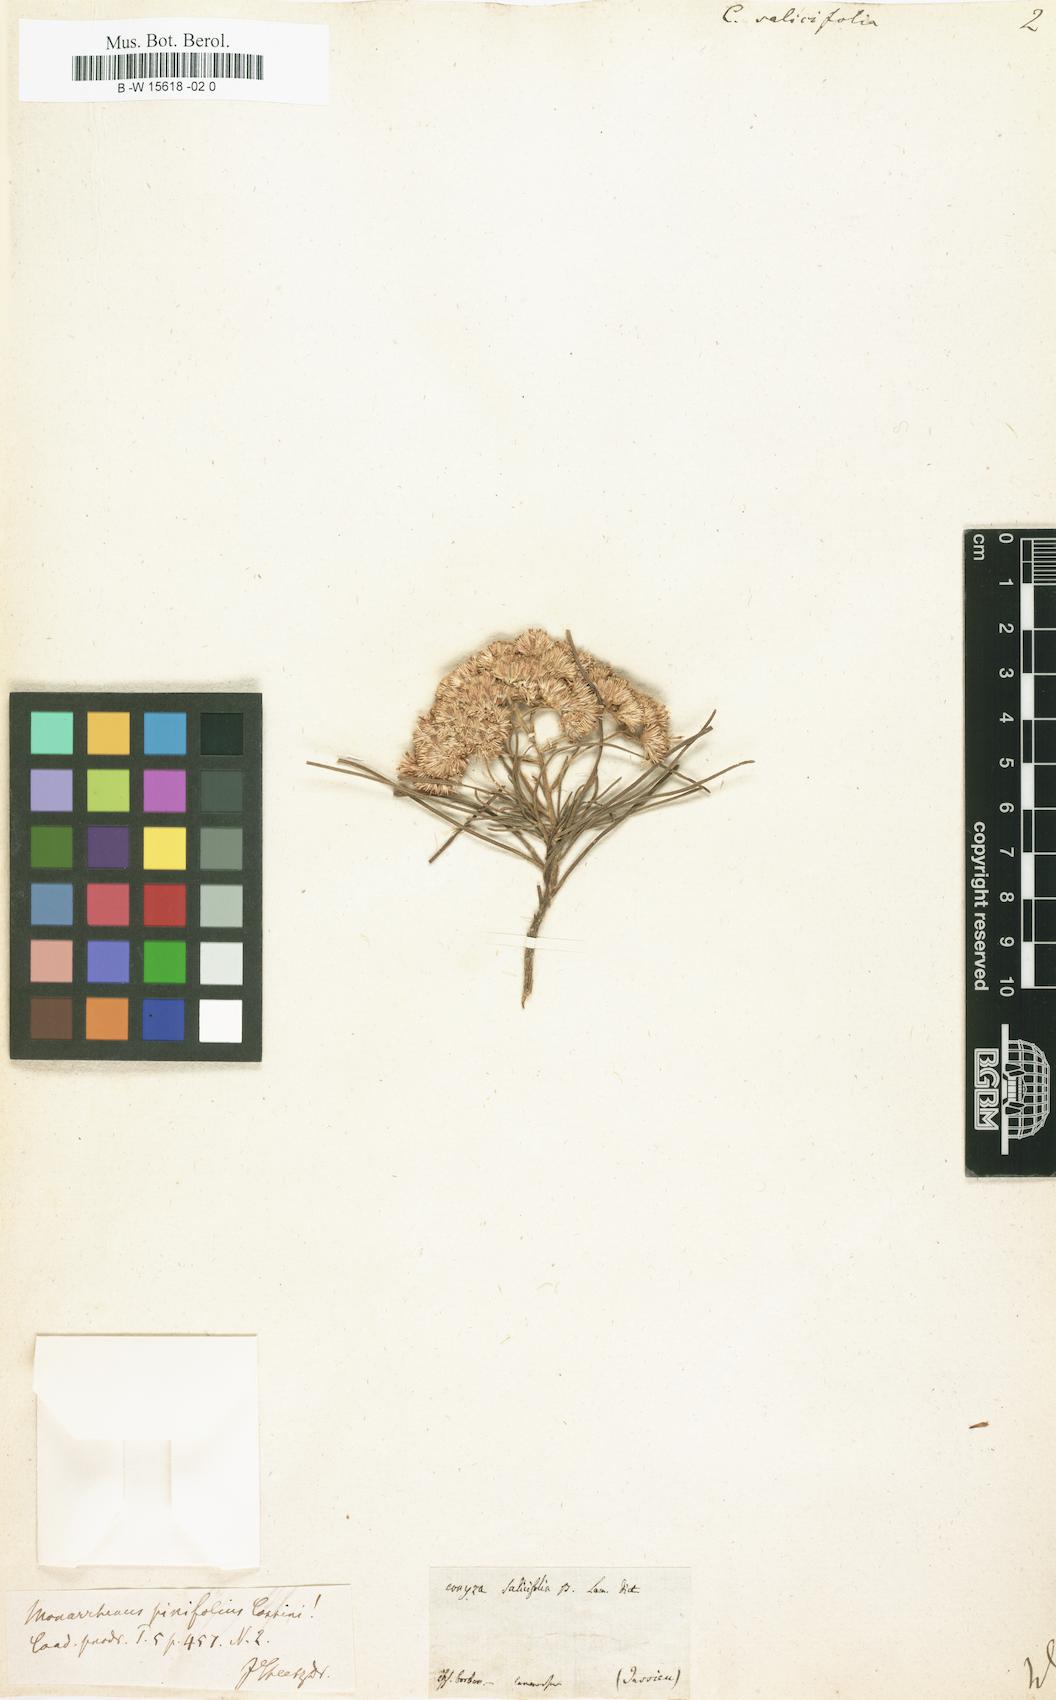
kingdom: Plantae
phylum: Tracheophyta
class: Magnoliopsida
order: Asterales
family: Asteraceae
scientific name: Asteraceae
